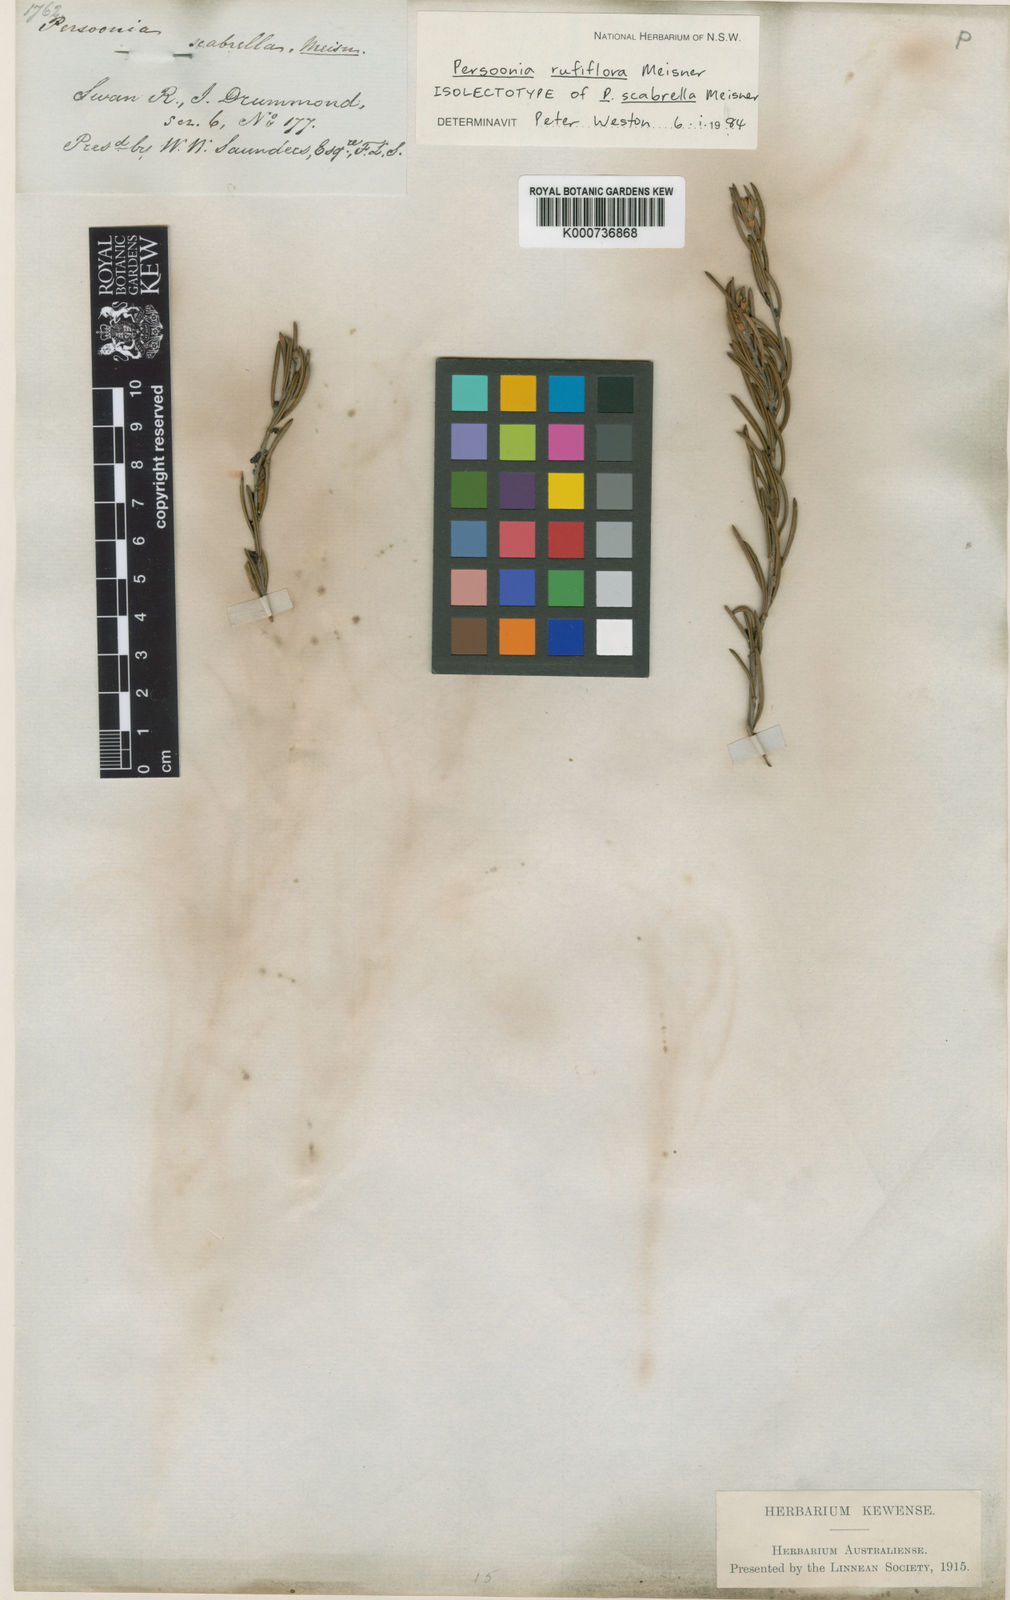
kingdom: Plantae
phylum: Tracheophyta
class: Magnoliopsida
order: Proteales
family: Proteaceae
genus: Persoonia
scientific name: Persoonia rufiflora
